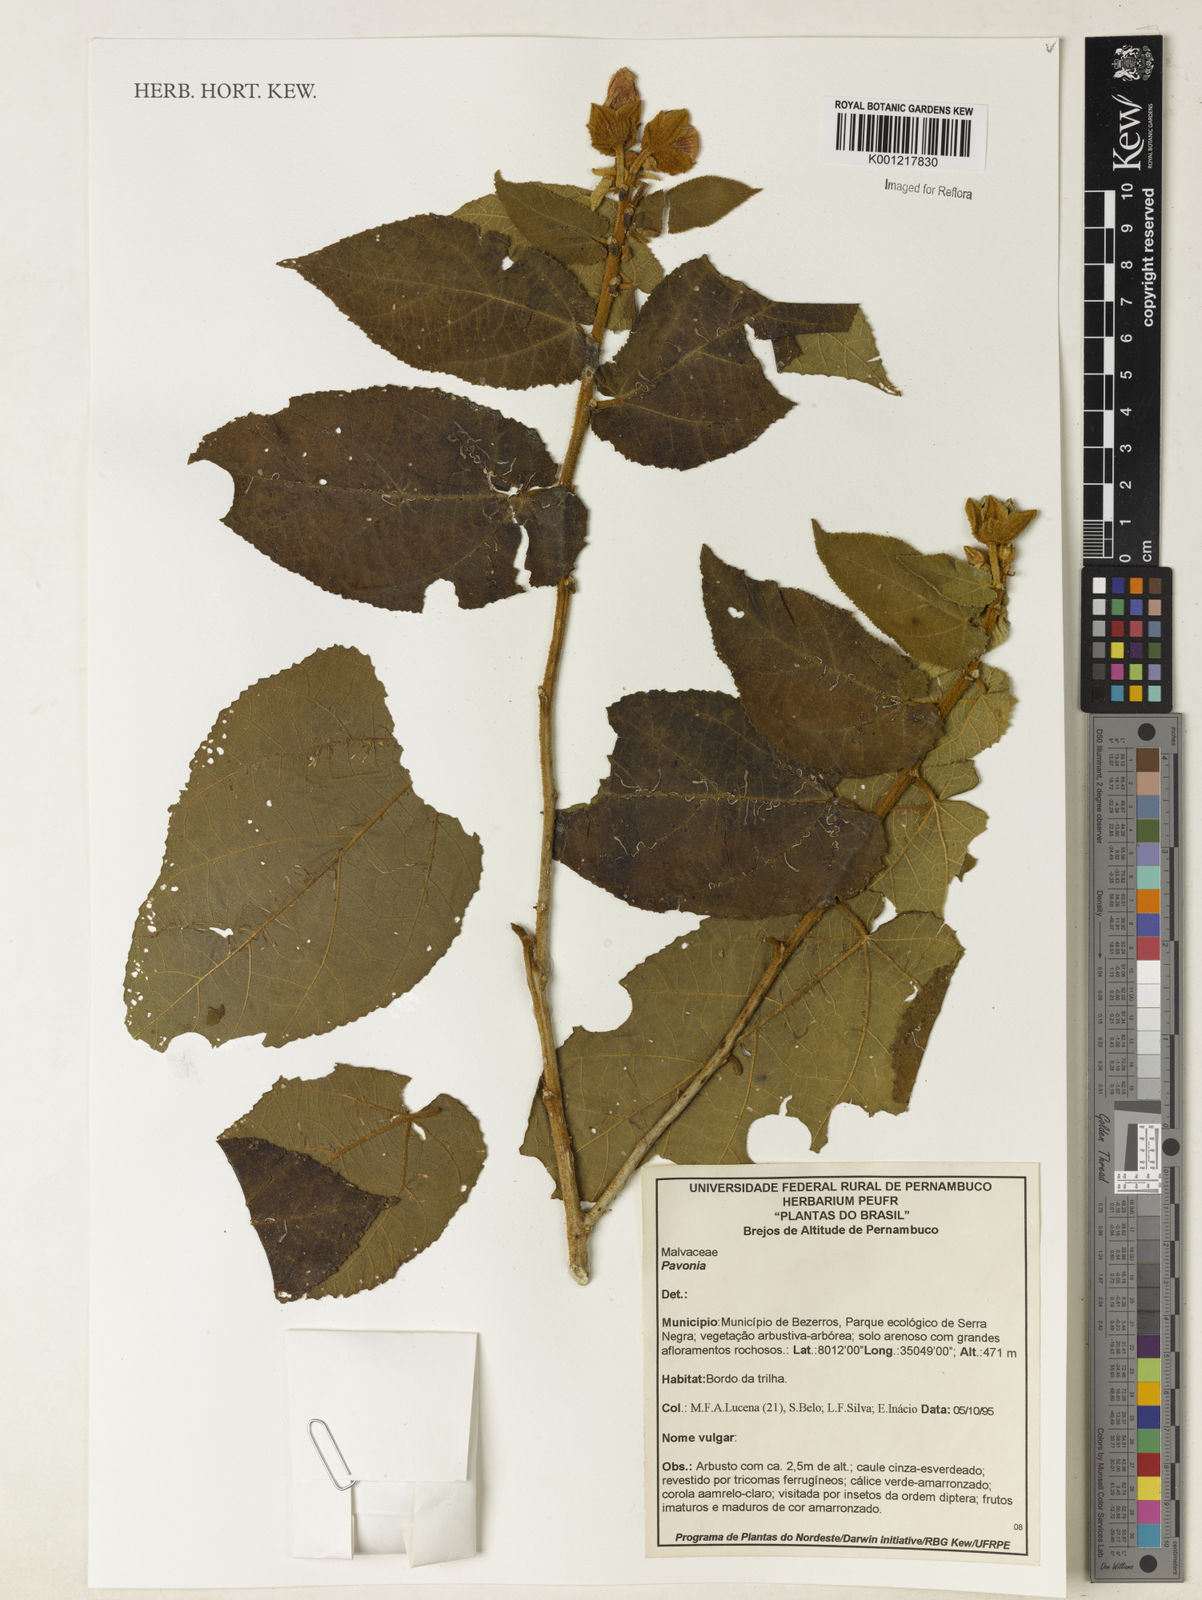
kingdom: Plantae
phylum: Tracheophyta
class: Magnoliopsida
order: Malvales
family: Malvaceae
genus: Pavonia
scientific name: Pavonia
